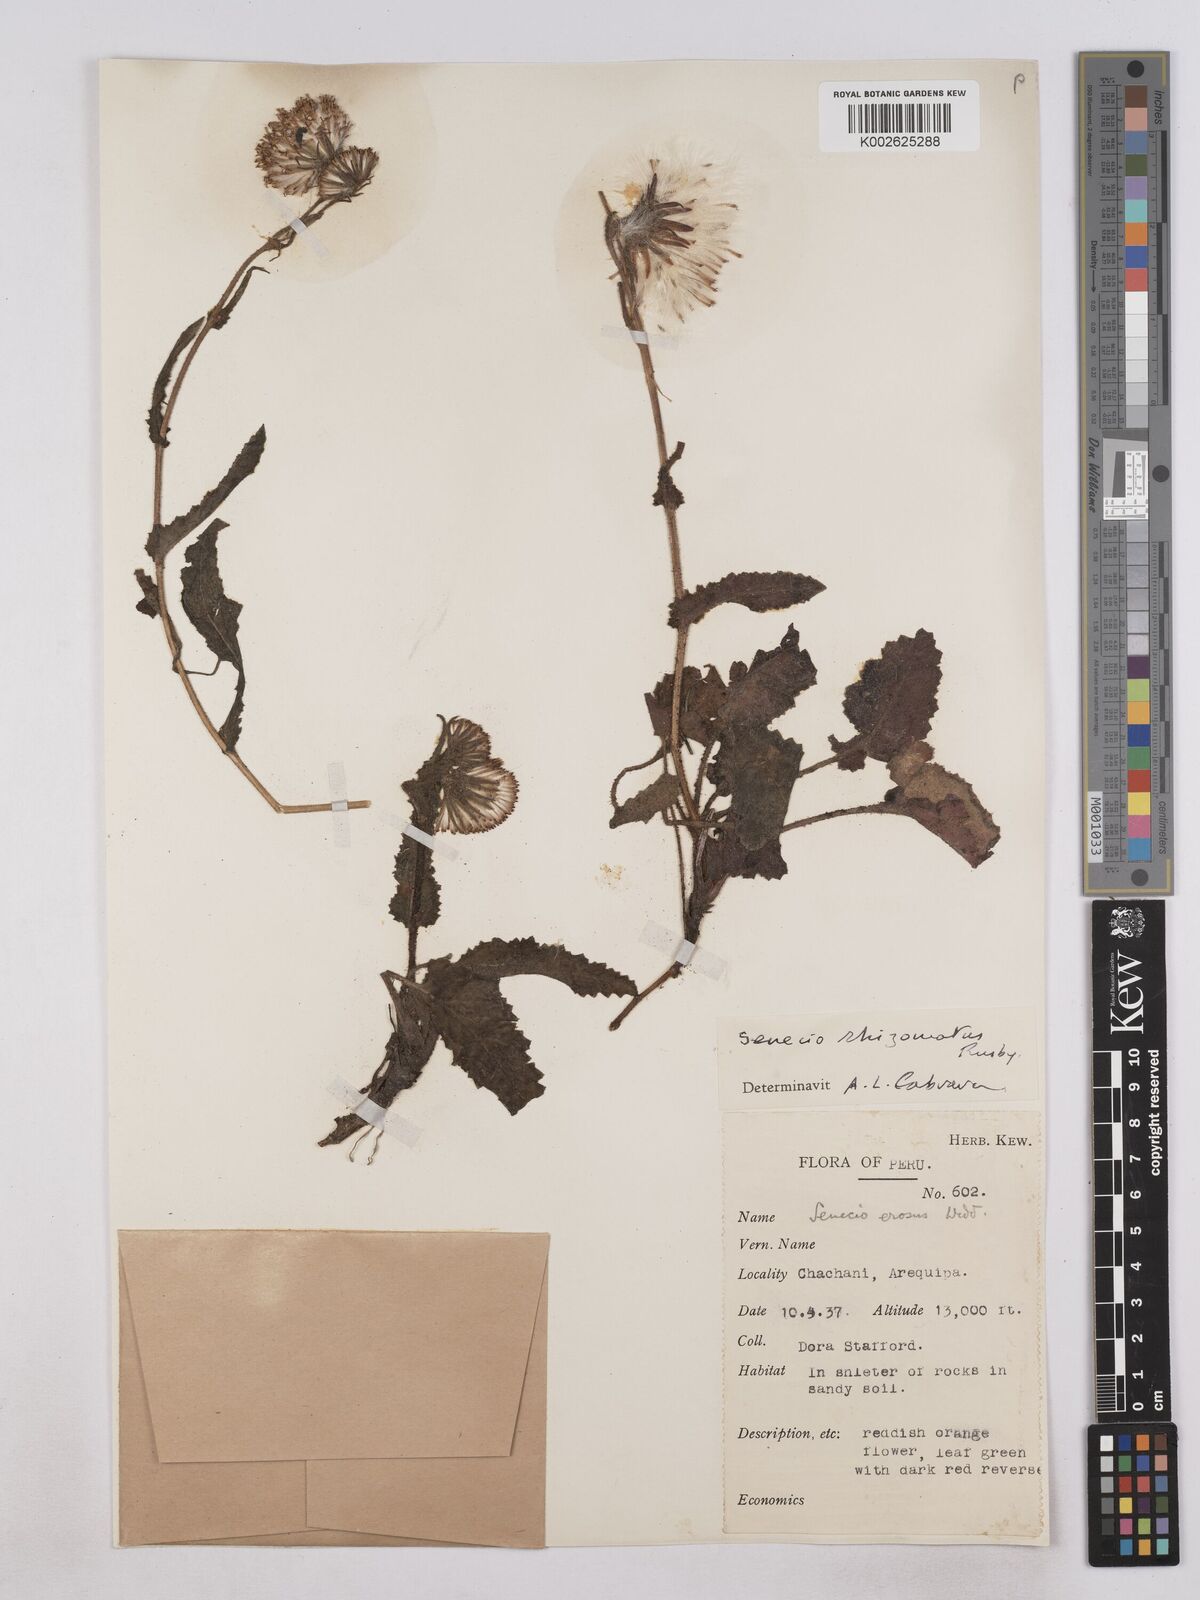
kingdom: Plantae
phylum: Tracheophyta
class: Magnoliopsida
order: Asterales
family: Asteraceae
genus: Senecio
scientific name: Senecio rhizomatus
